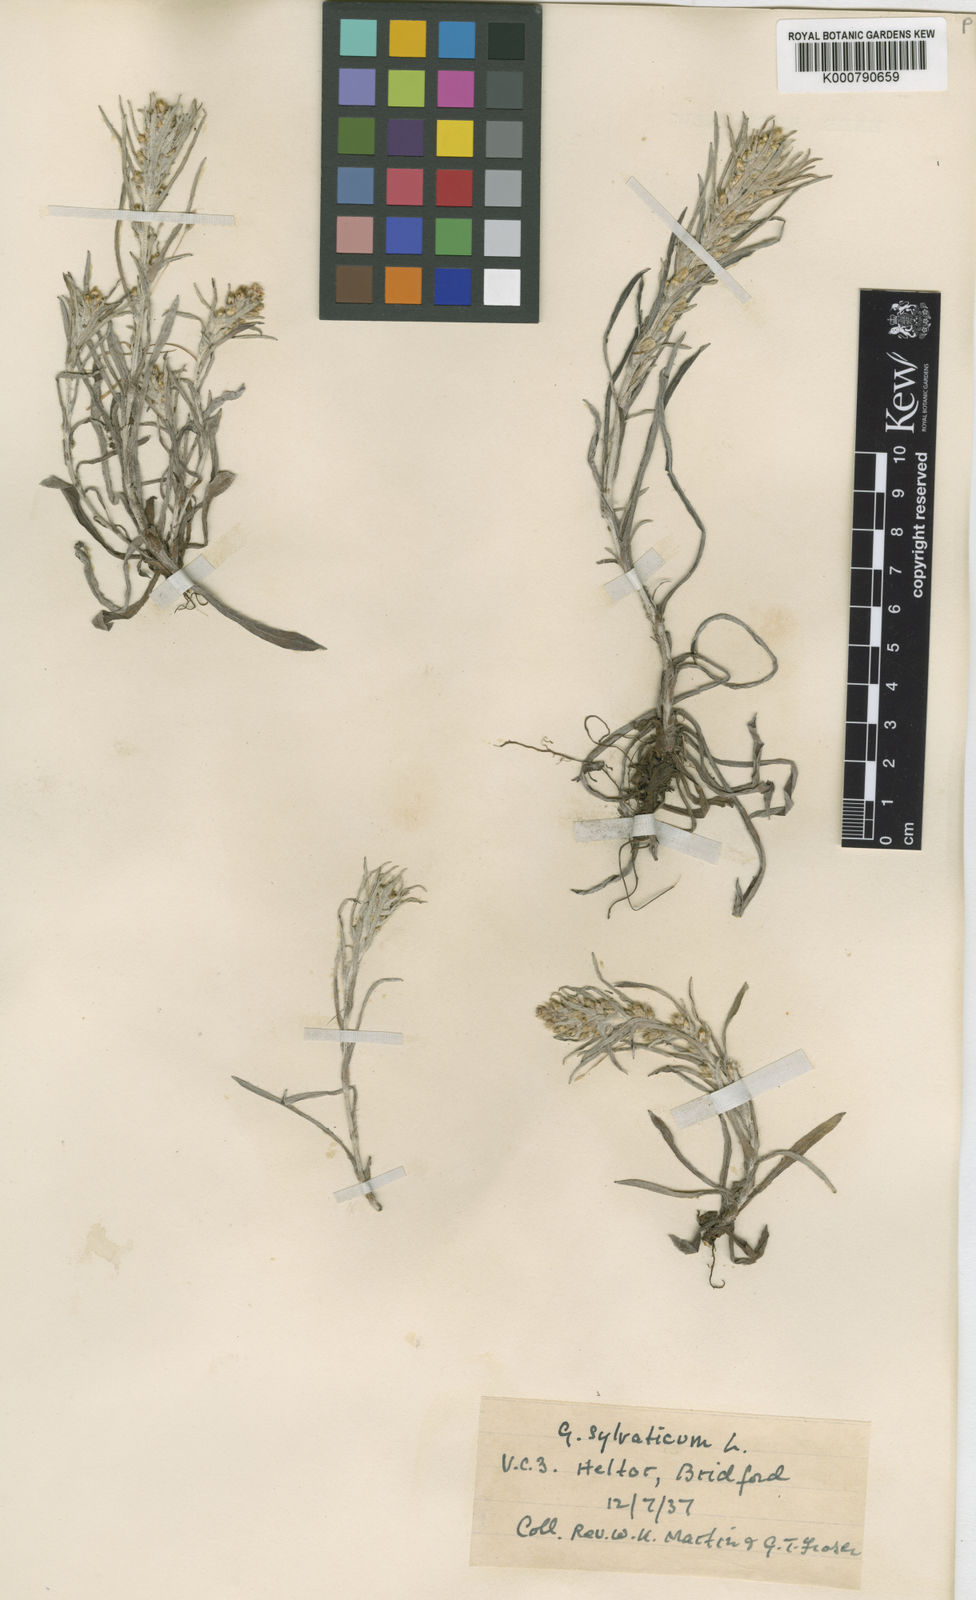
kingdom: Plantae
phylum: Tracheophyta
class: Magnoliopsida
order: Asterales
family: Asteraceae
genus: Omalotheca
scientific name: Omalotheca sylvatica
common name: Heath cudweed
